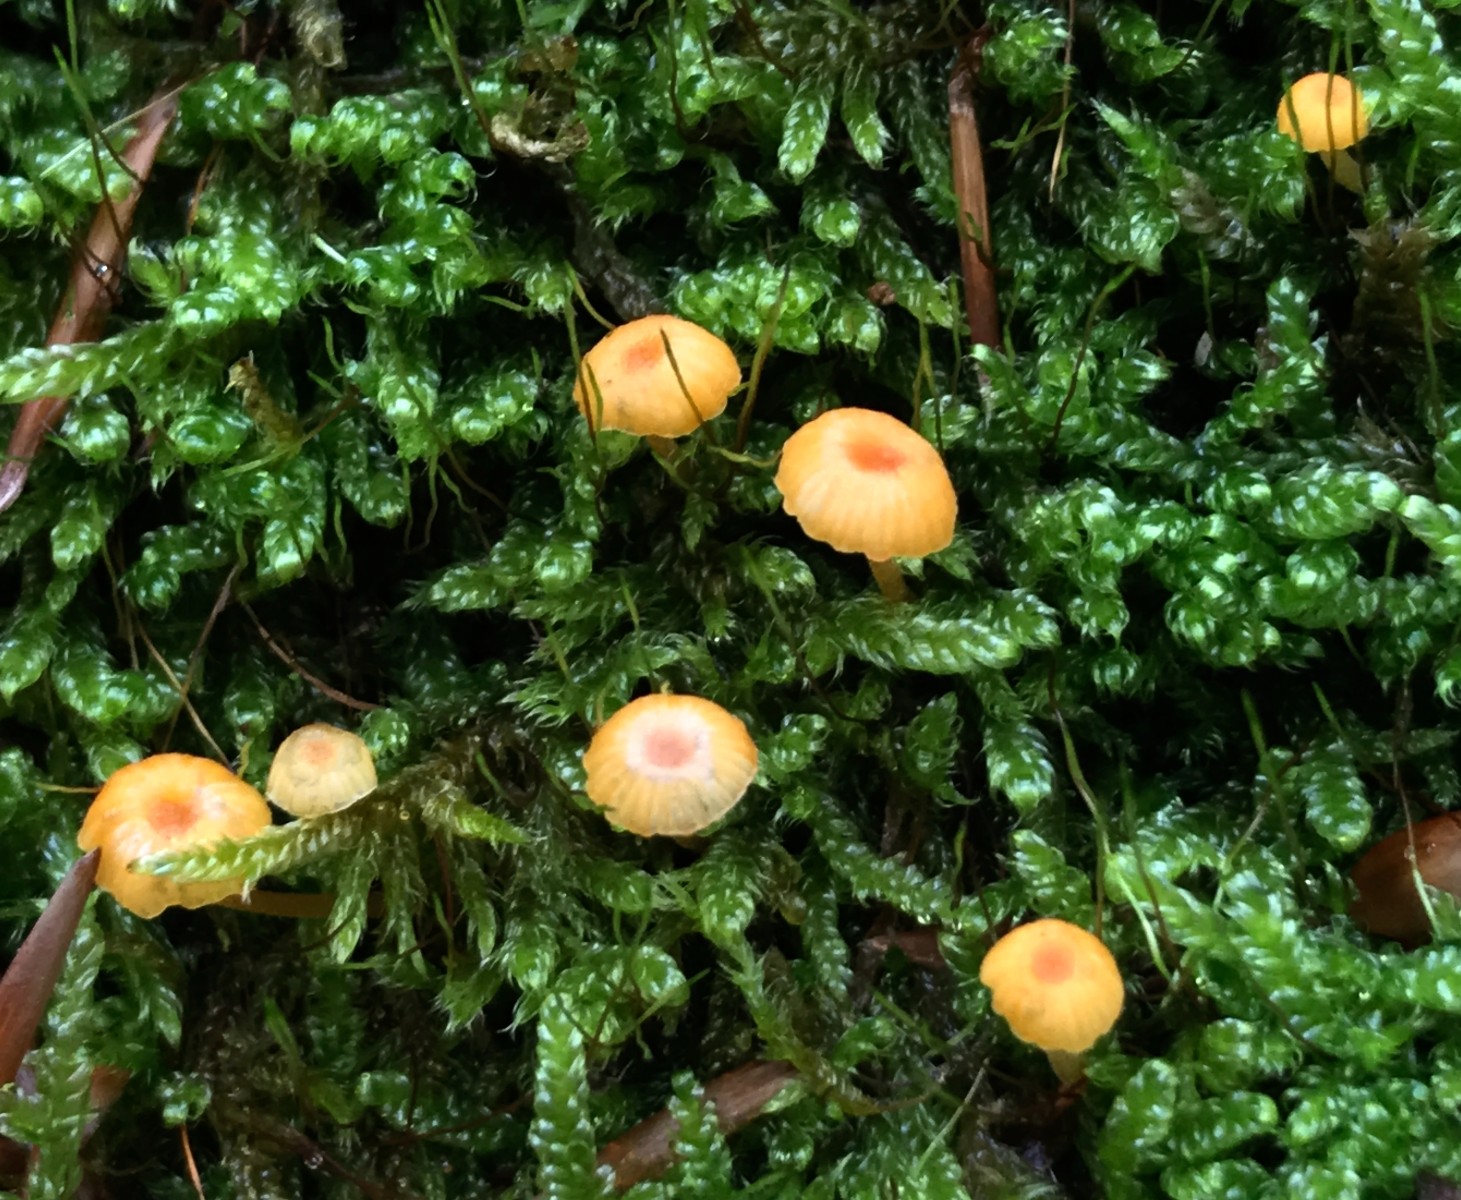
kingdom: Fungi
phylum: Basidiomycota
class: Agaricomycetes
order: Hymenochaetales
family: Rickenellaceae
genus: Rickenella
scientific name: Rickenella fibula
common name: orange mosnavlehat
